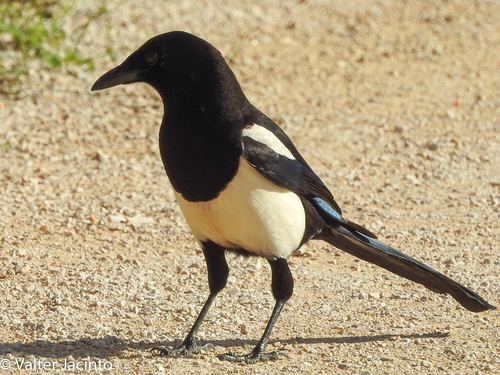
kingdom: Animalia
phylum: Chordata
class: Aves
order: Passeriformes
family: Corvidae
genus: Pica
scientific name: Pica pica
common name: Eurasian magpie
